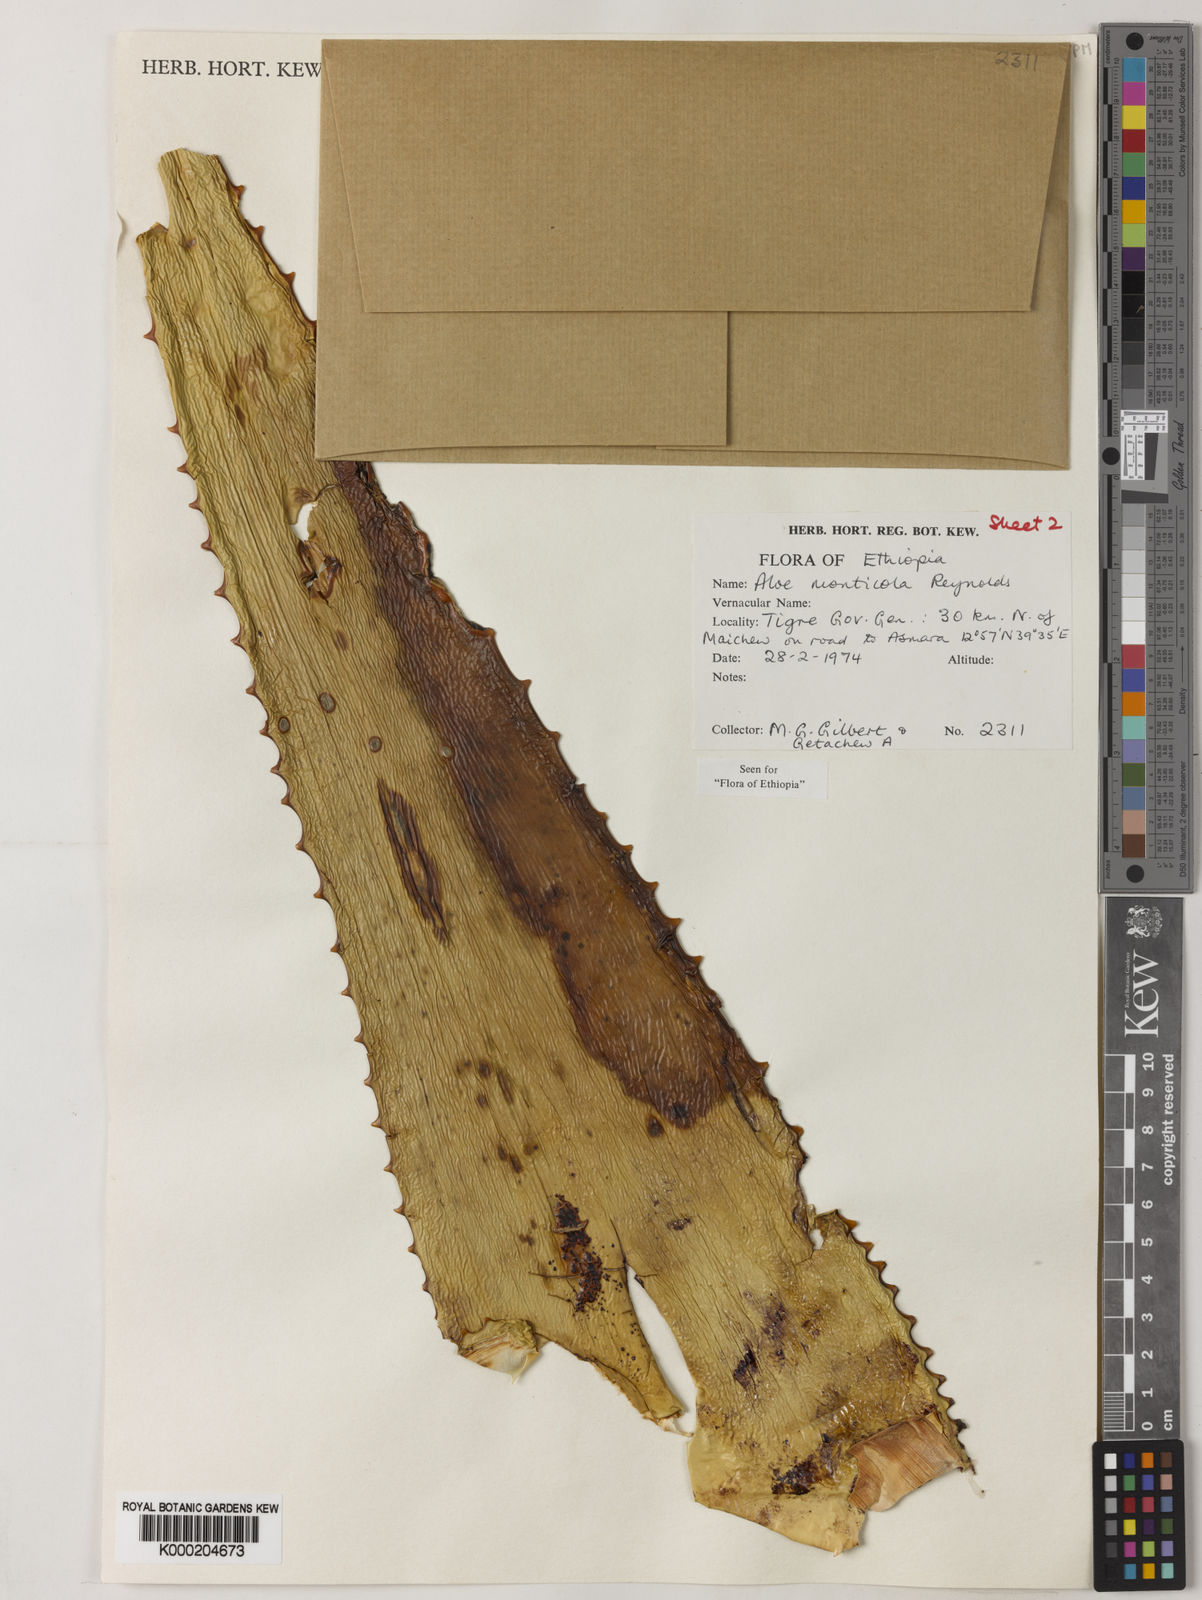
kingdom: Plantae
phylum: Tracheophyta
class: Liliopsida
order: Asparagales
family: Asphodelaceae
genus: Aloe
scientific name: Aloe monticola
